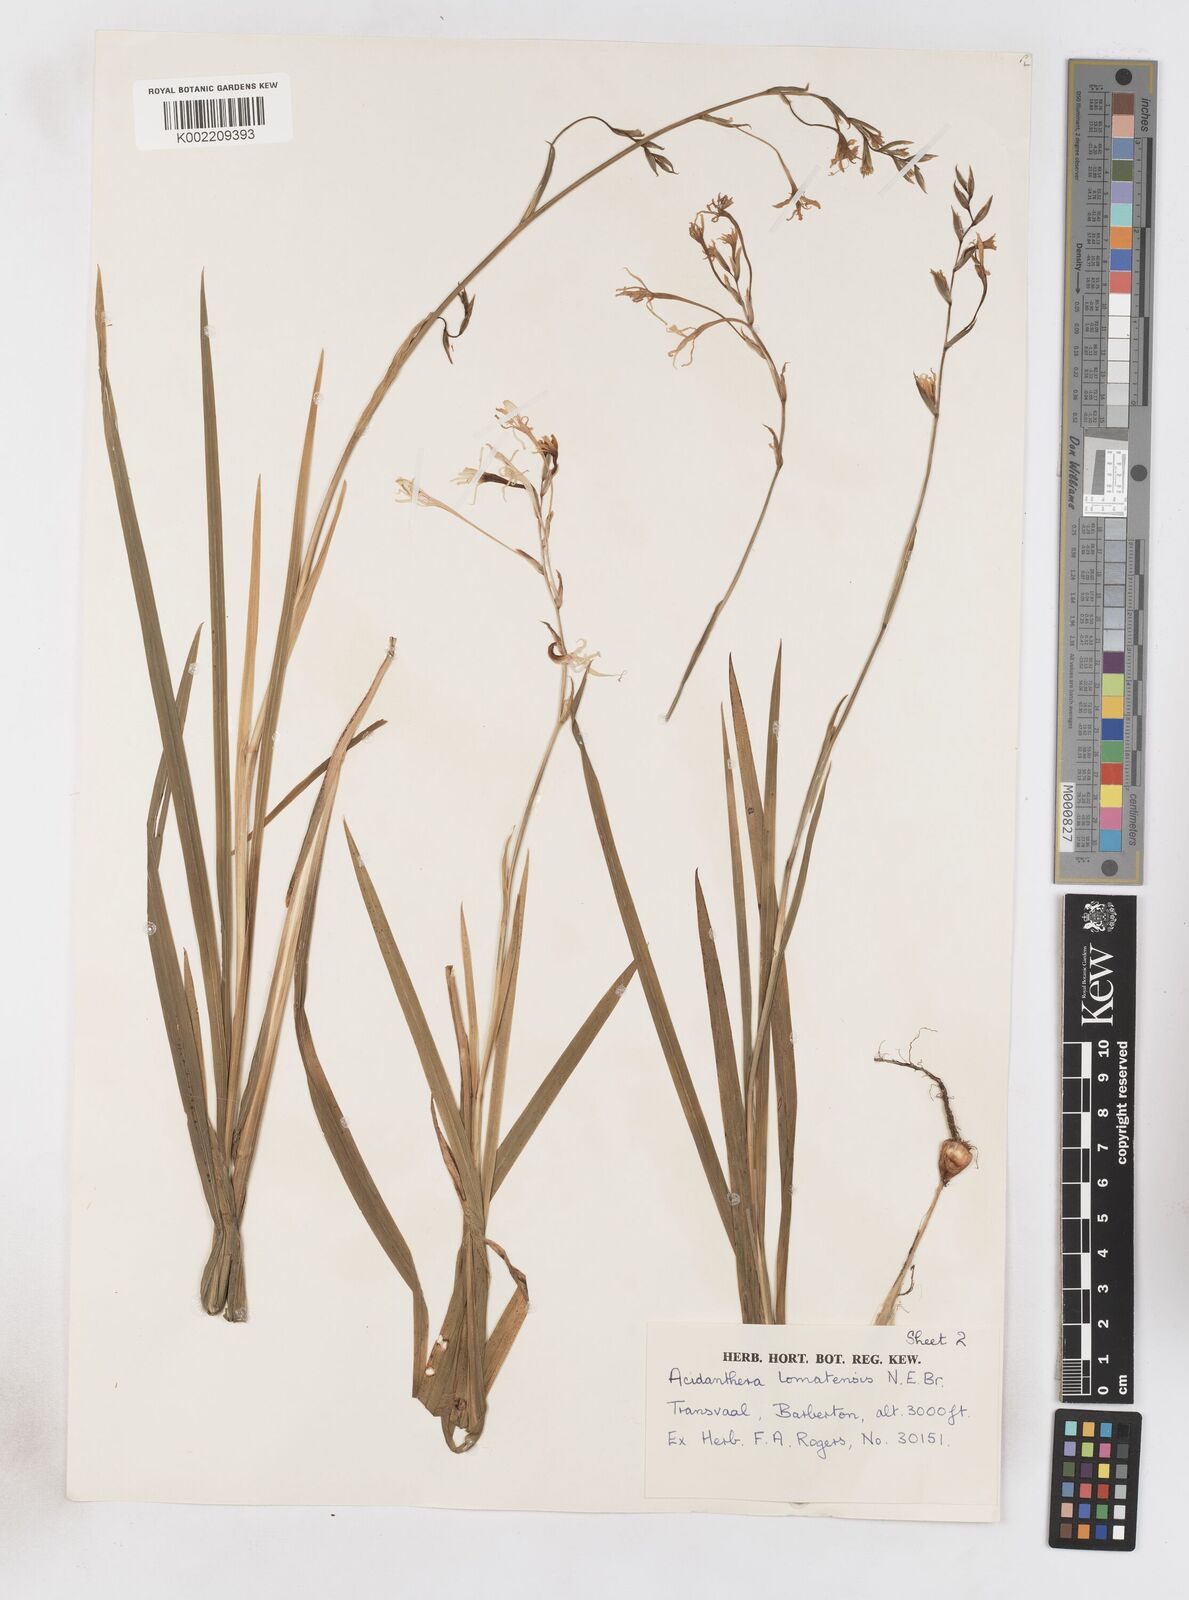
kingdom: Plantae
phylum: Tracheophyta
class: Liliopsida
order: Asparagales
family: Iridaceae
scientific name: Iridaceae
